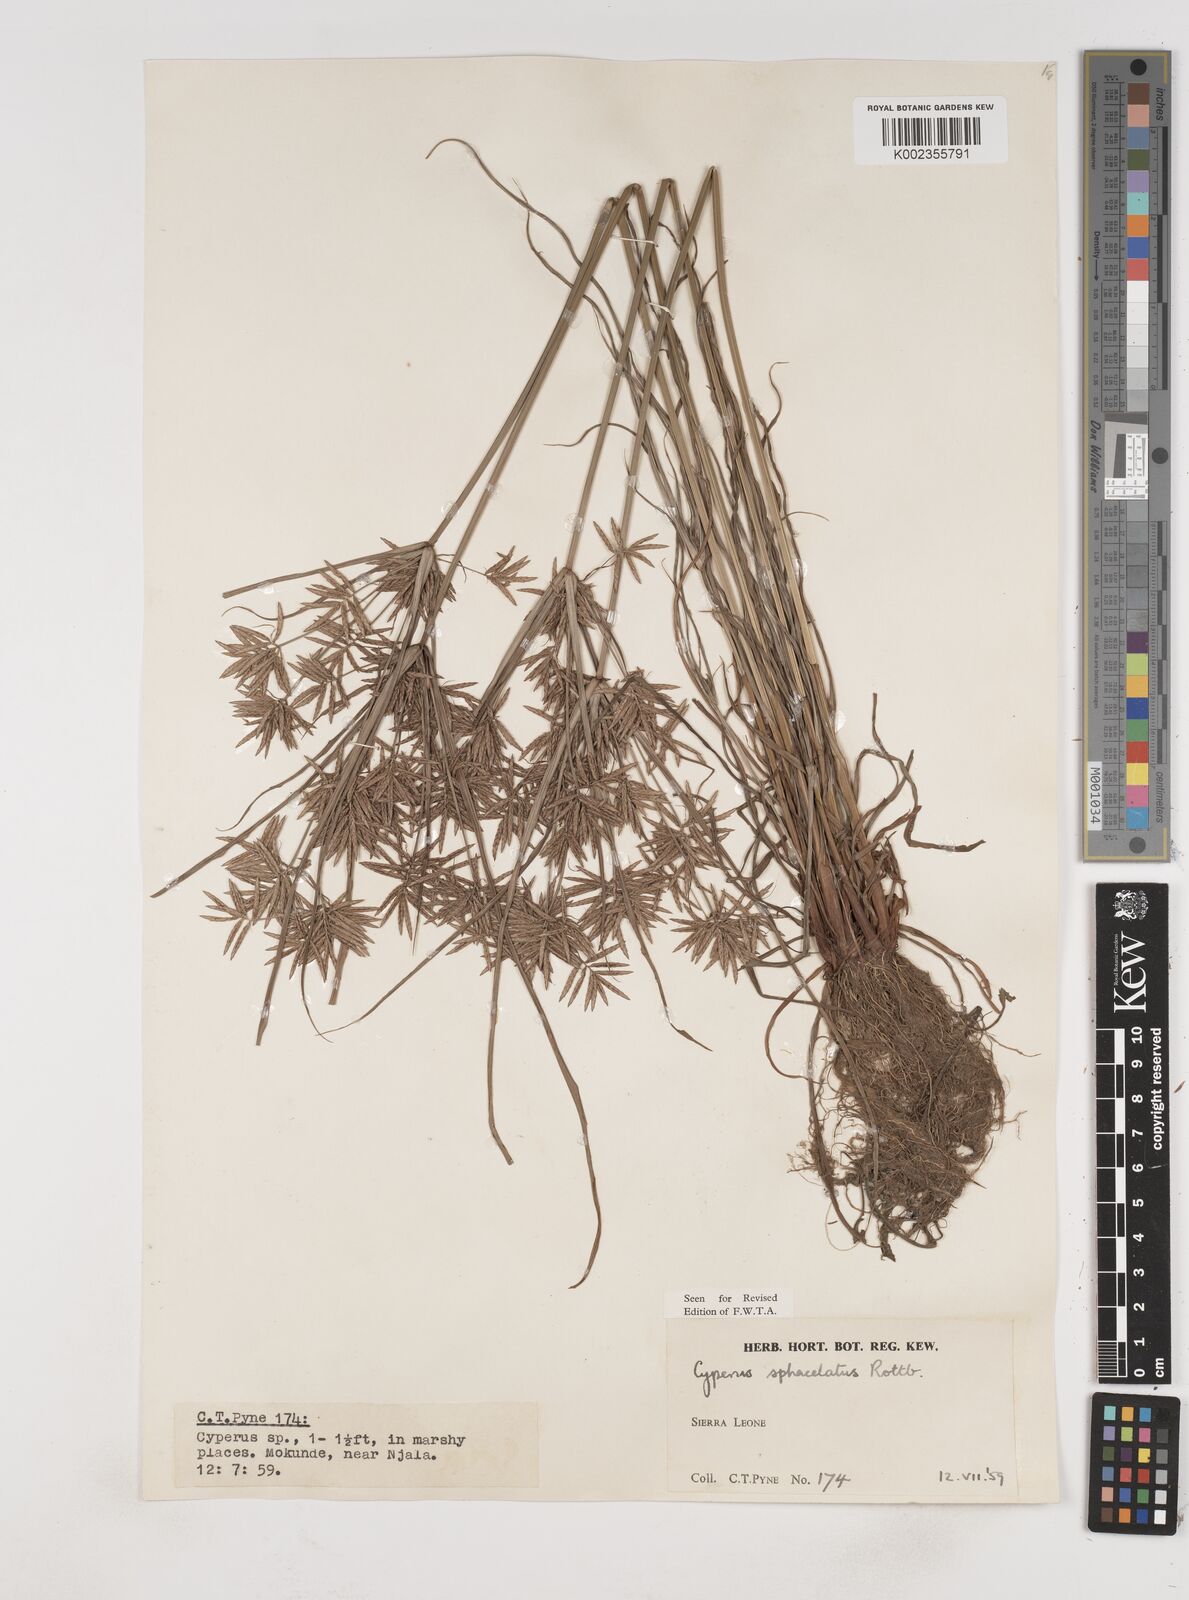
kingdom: Plantae
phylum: Tracheophyta
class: Liliopsida
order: Poales
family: Cyperaceae
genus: Cyperus
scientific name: Cyperus sphacelatus
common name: Roadside flatsedge
